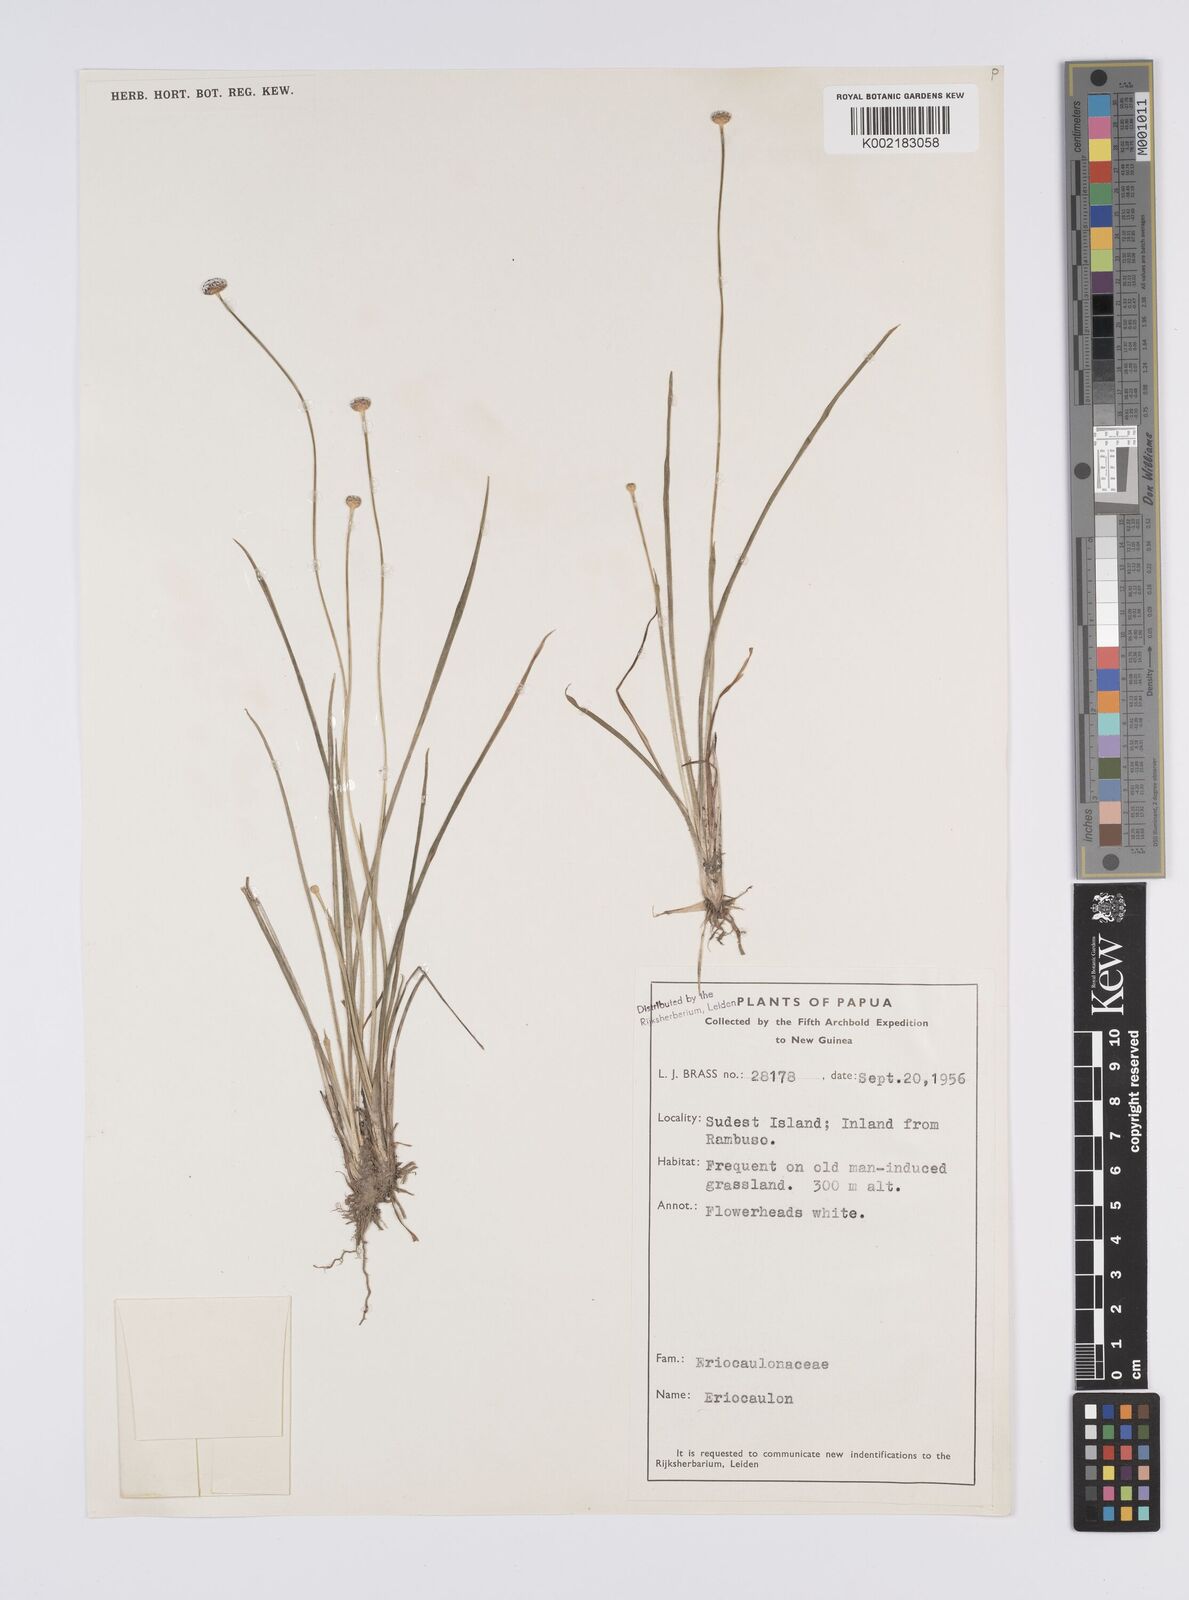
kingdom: Plantae
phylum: Tracheophyta
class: Liliopsida
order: Poales
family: Eriocaulaceae
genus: Eriocaulon
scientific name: Eriocaulon
